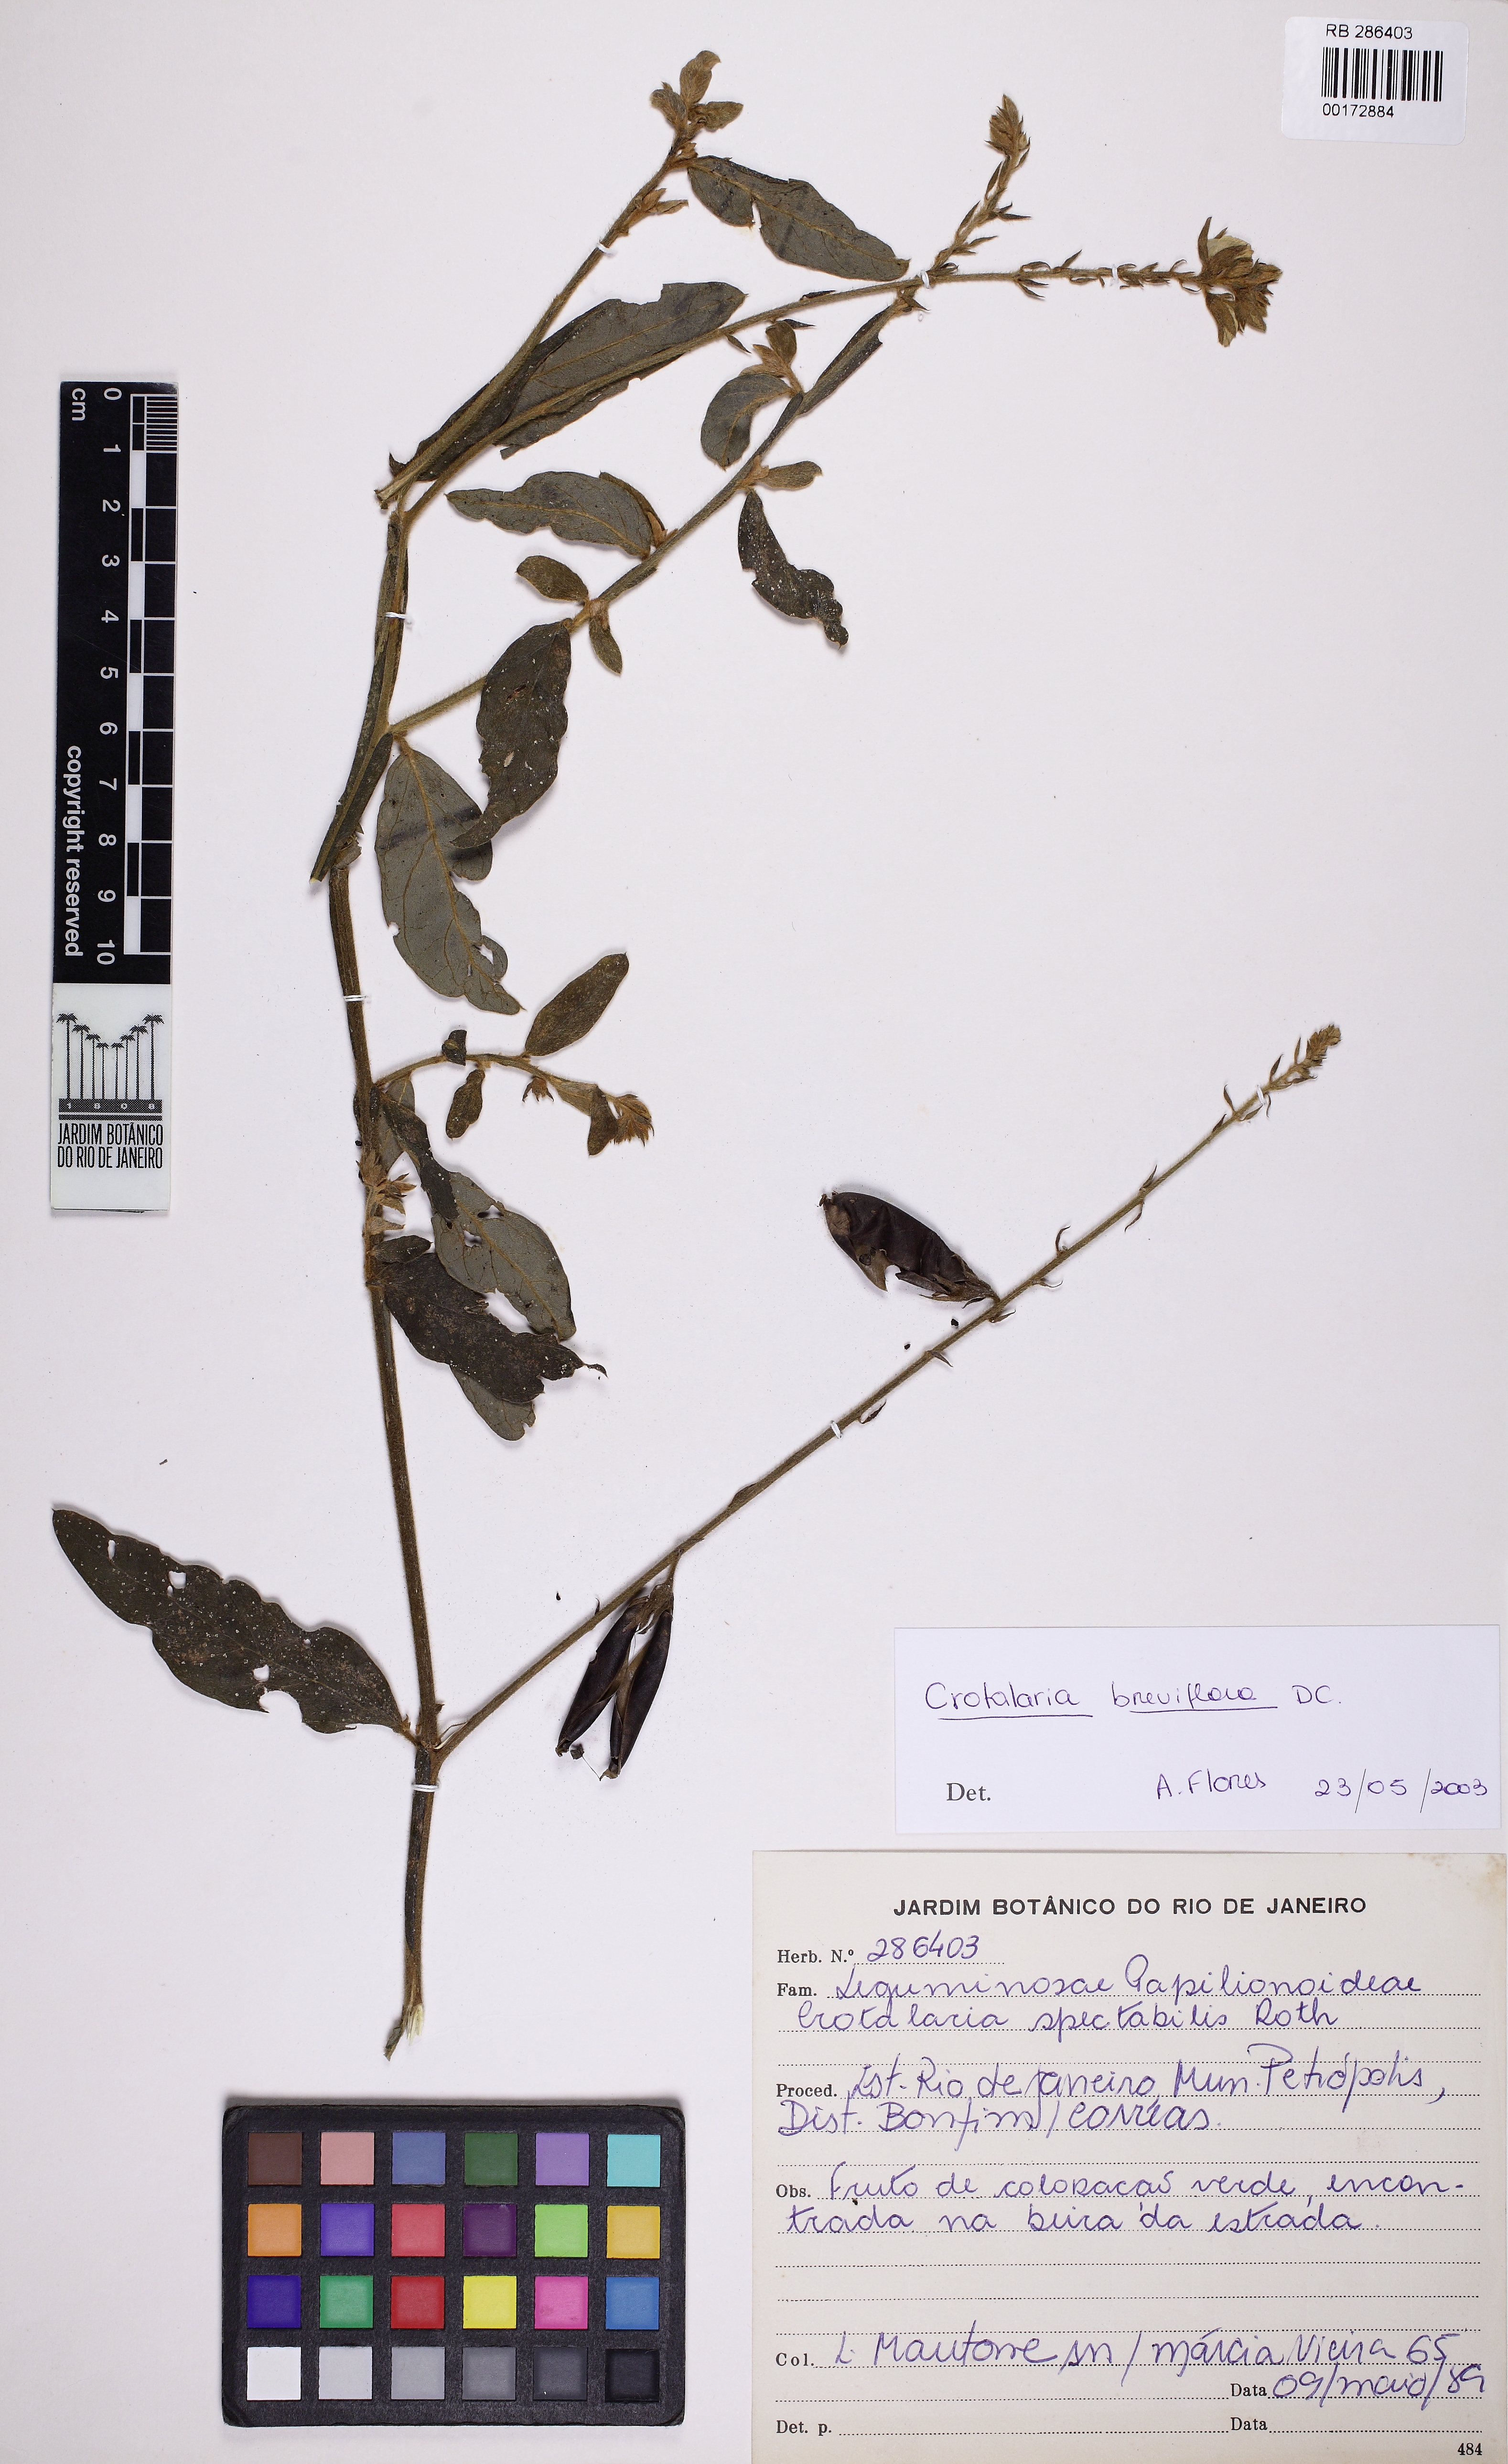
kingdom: Plantae
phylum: Tracheophyta
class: Magnoliopsida
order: Fabales
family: Fabaceae
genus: Crotalaria
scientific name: Crotalaria breviflora
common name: Short-flower crotalaria
